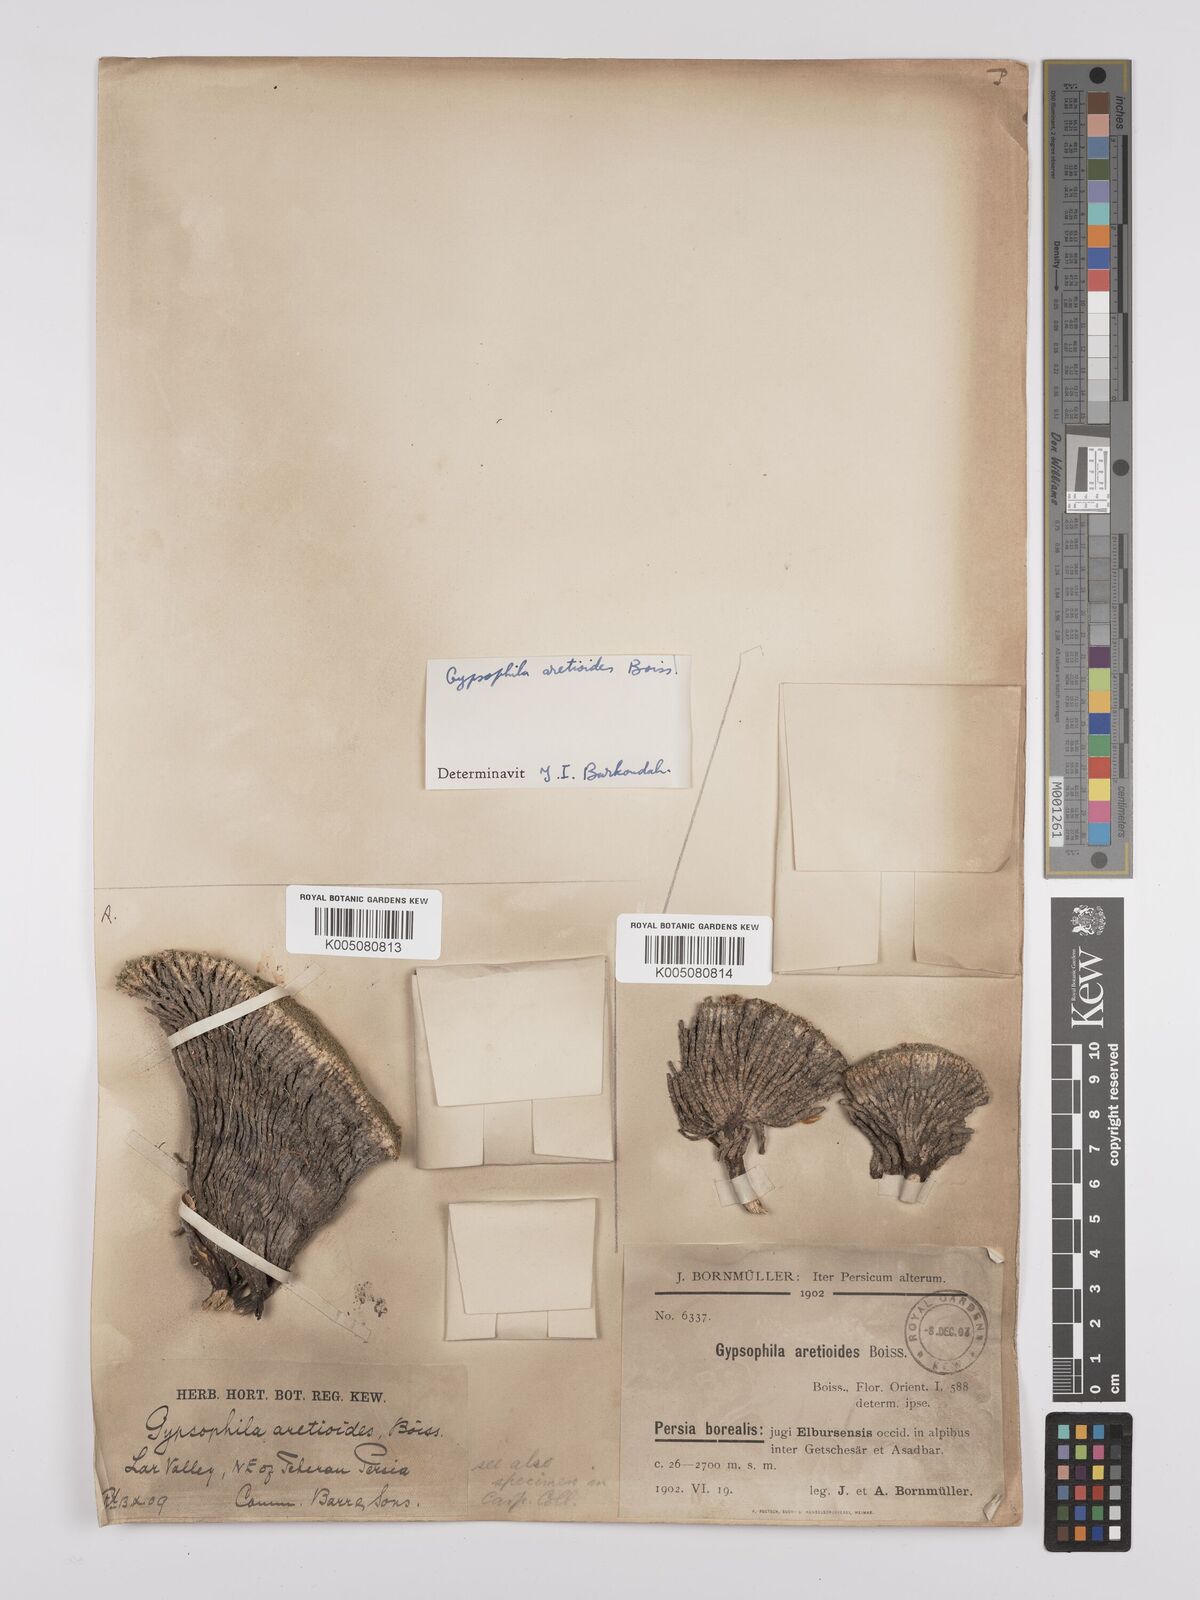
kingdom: Plantae
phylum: Tracheophyta
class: Magnoliopsida
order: Caryophyllales
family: Caryophyllaceae
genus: Gypsophila
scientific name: Gypsophila aretioides
